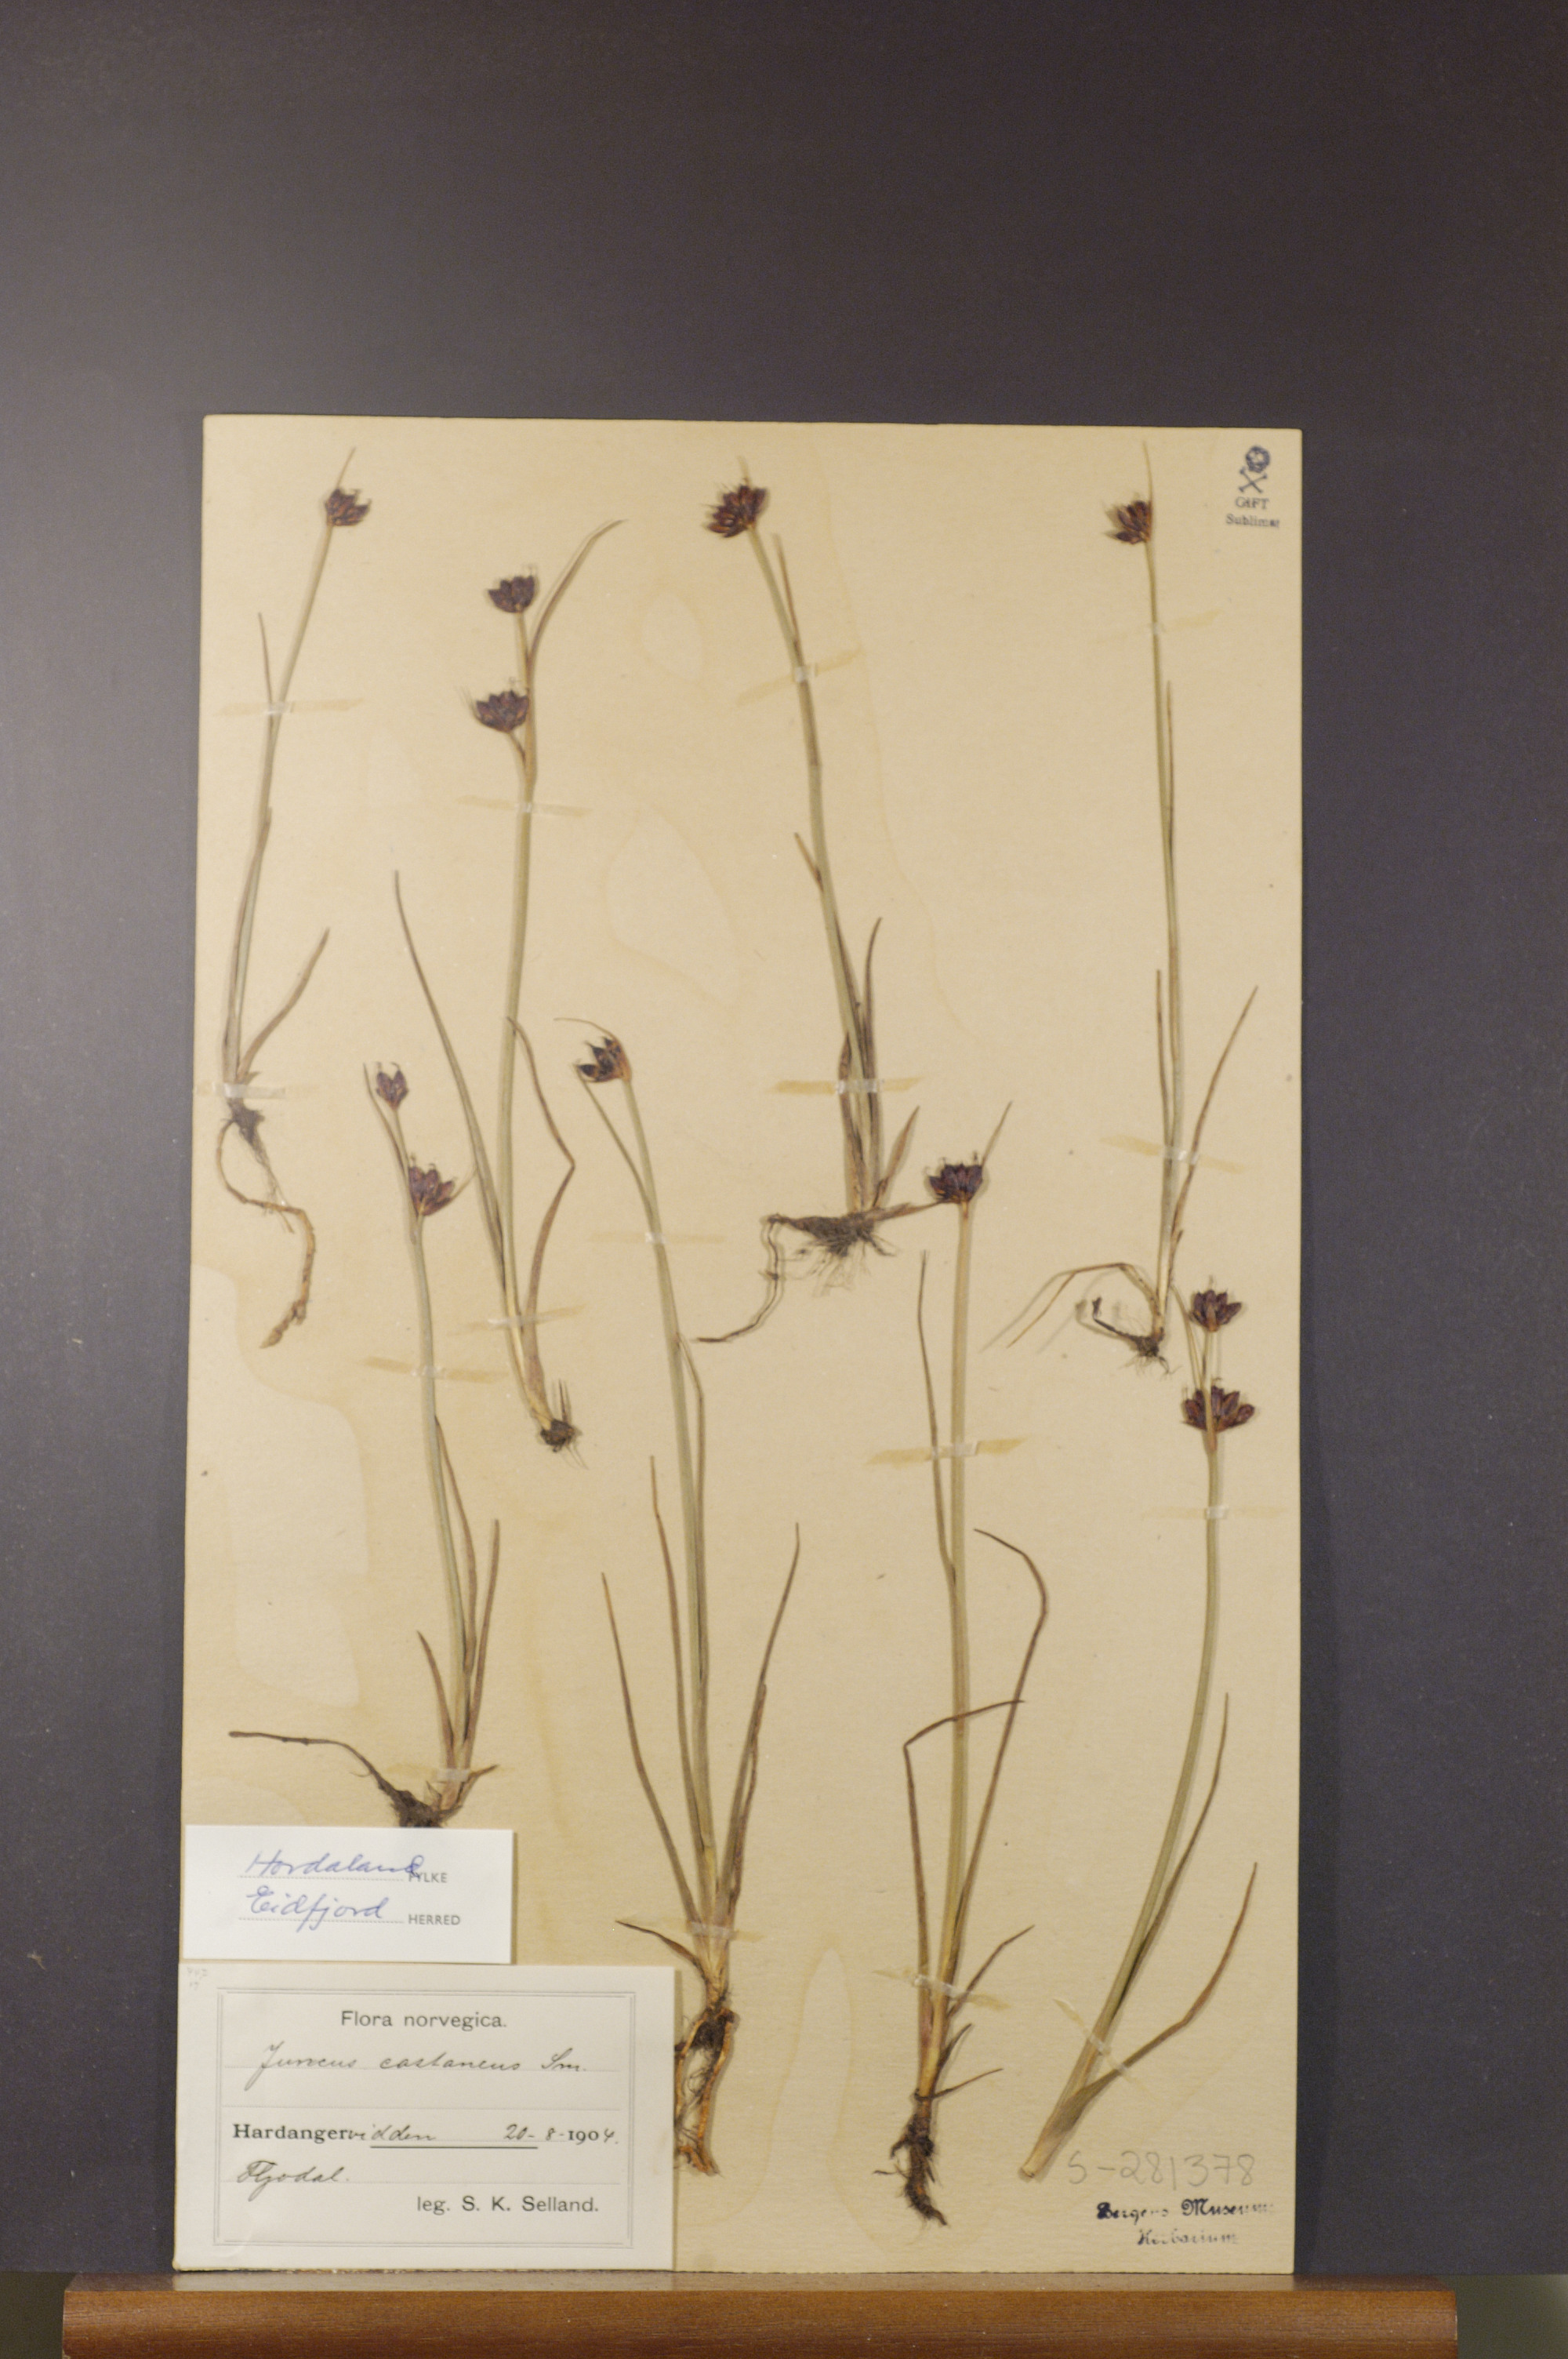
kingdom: Plantae
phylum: Tracheophyta
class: Liliopsida
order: Poales
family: Juncaceae
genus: Juncus
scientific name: Juncus castaneus
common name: Chestnut rush
